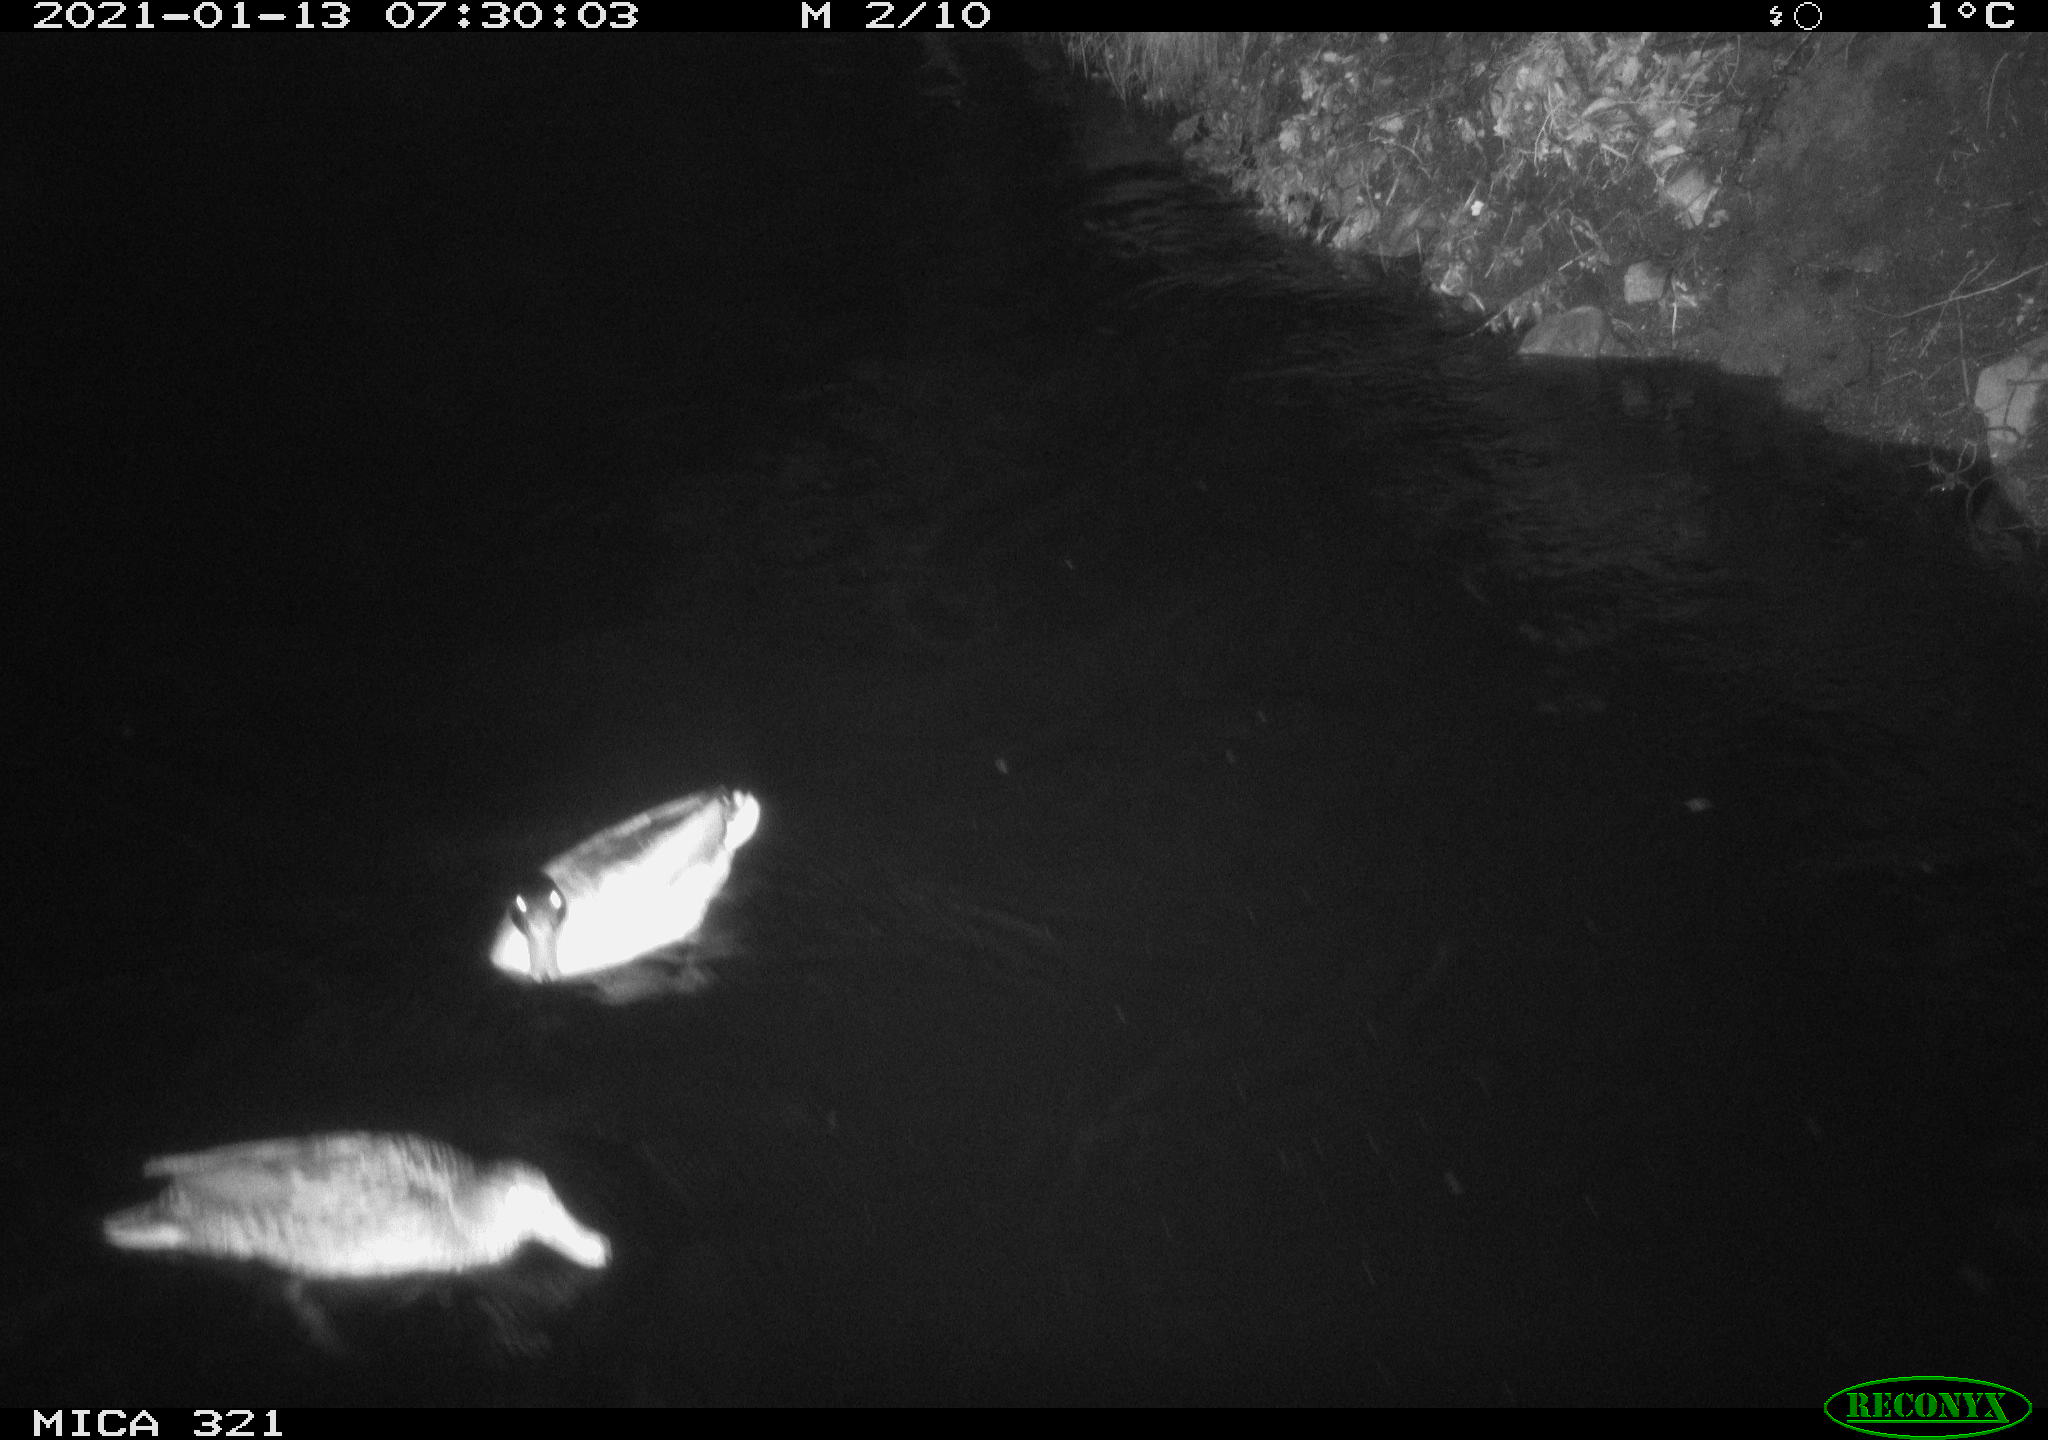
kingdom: Animalia
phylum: Chordata
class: Aves
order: Anseriformes
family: Anatidae
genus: Anas
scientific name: Anas platyrhynchos
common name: Mallard
